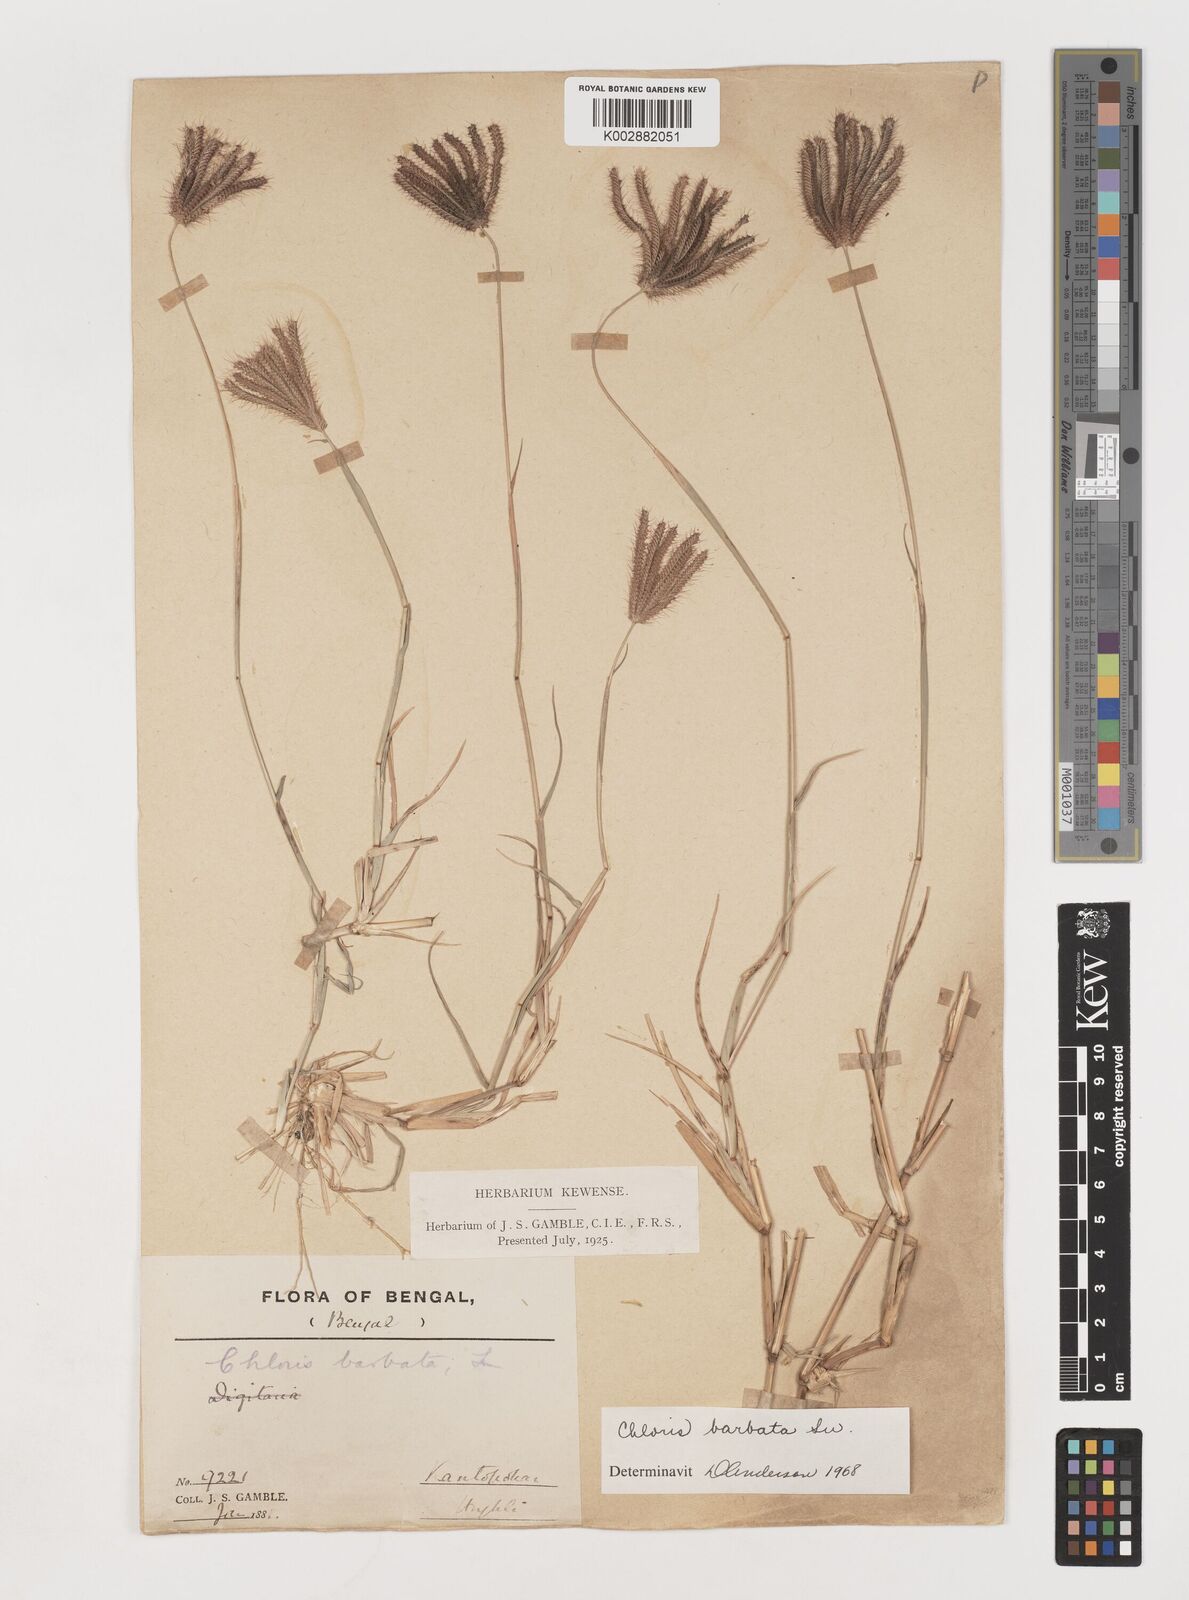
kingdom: Plantae
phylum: Tracheophyta
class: Liliopsida
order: Poales
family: Poaceae
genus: Chloris
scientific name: Chloris barbata
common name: Swollen fingergrass
